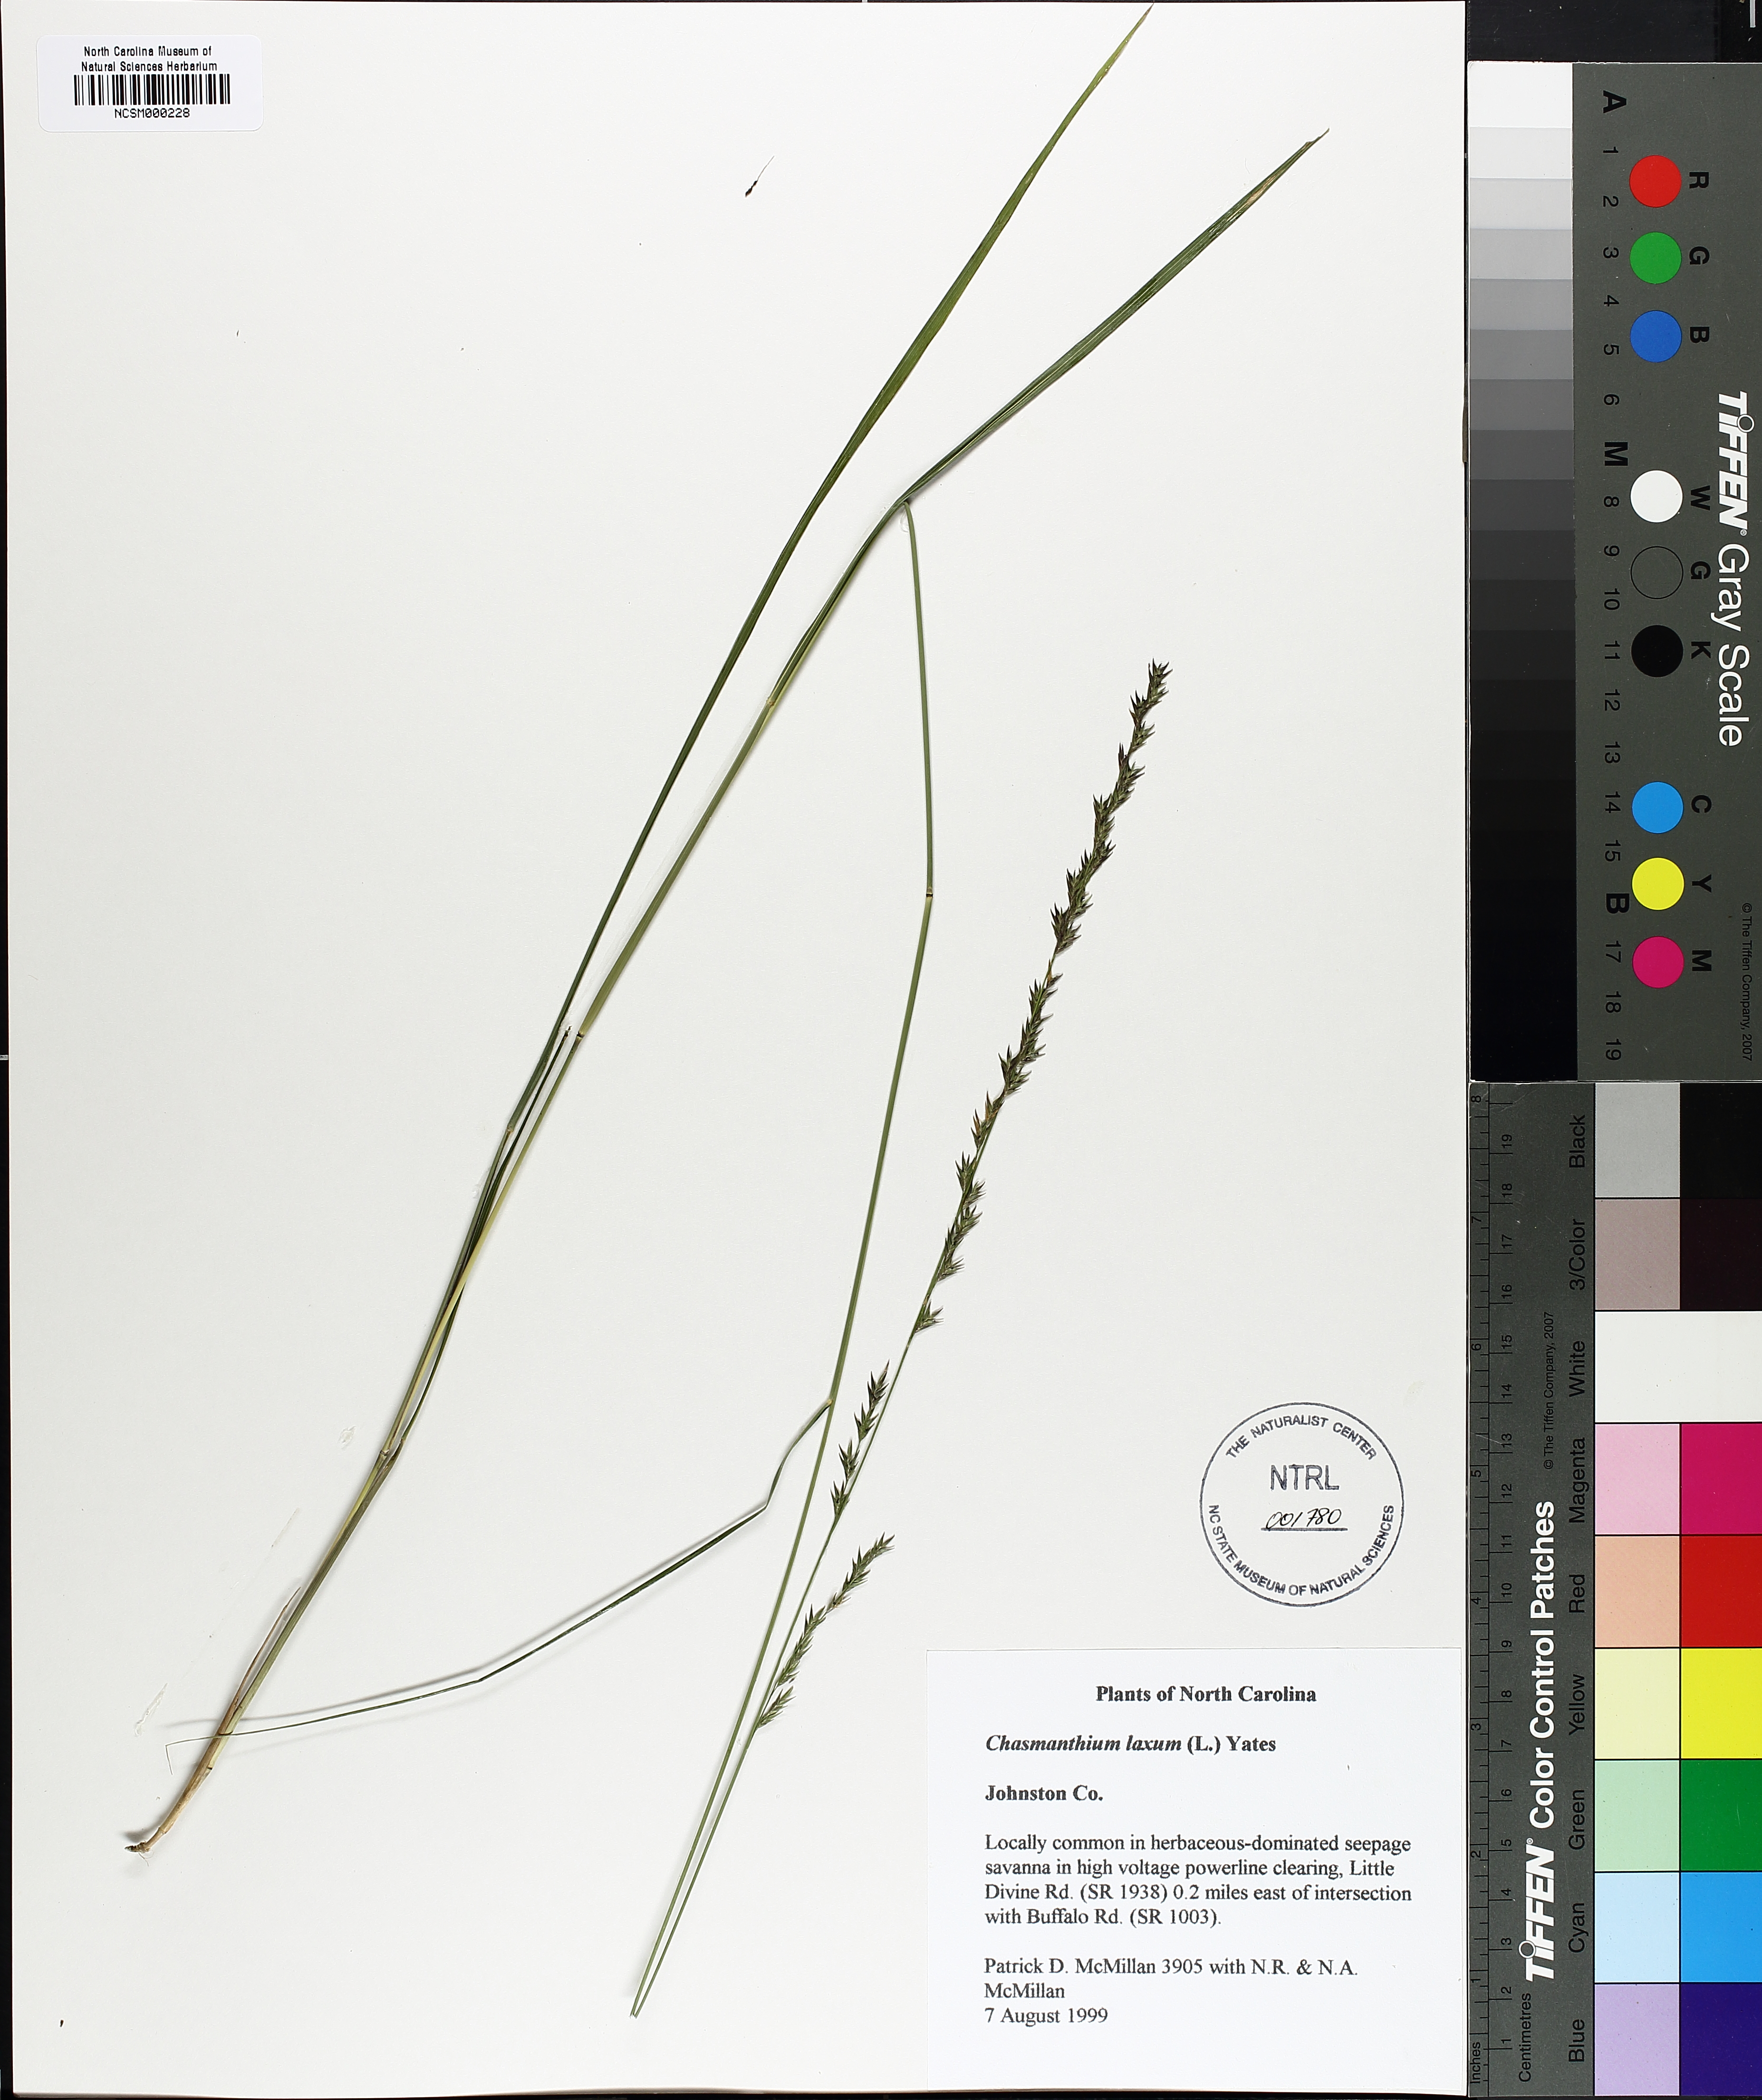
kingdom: Plantae
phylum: Tracheophyta
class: Liliopsida
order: Poales
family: Poaceae
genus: Chasmanthium
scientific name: Chasmanthium laxum
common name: Slender chasmanthium
